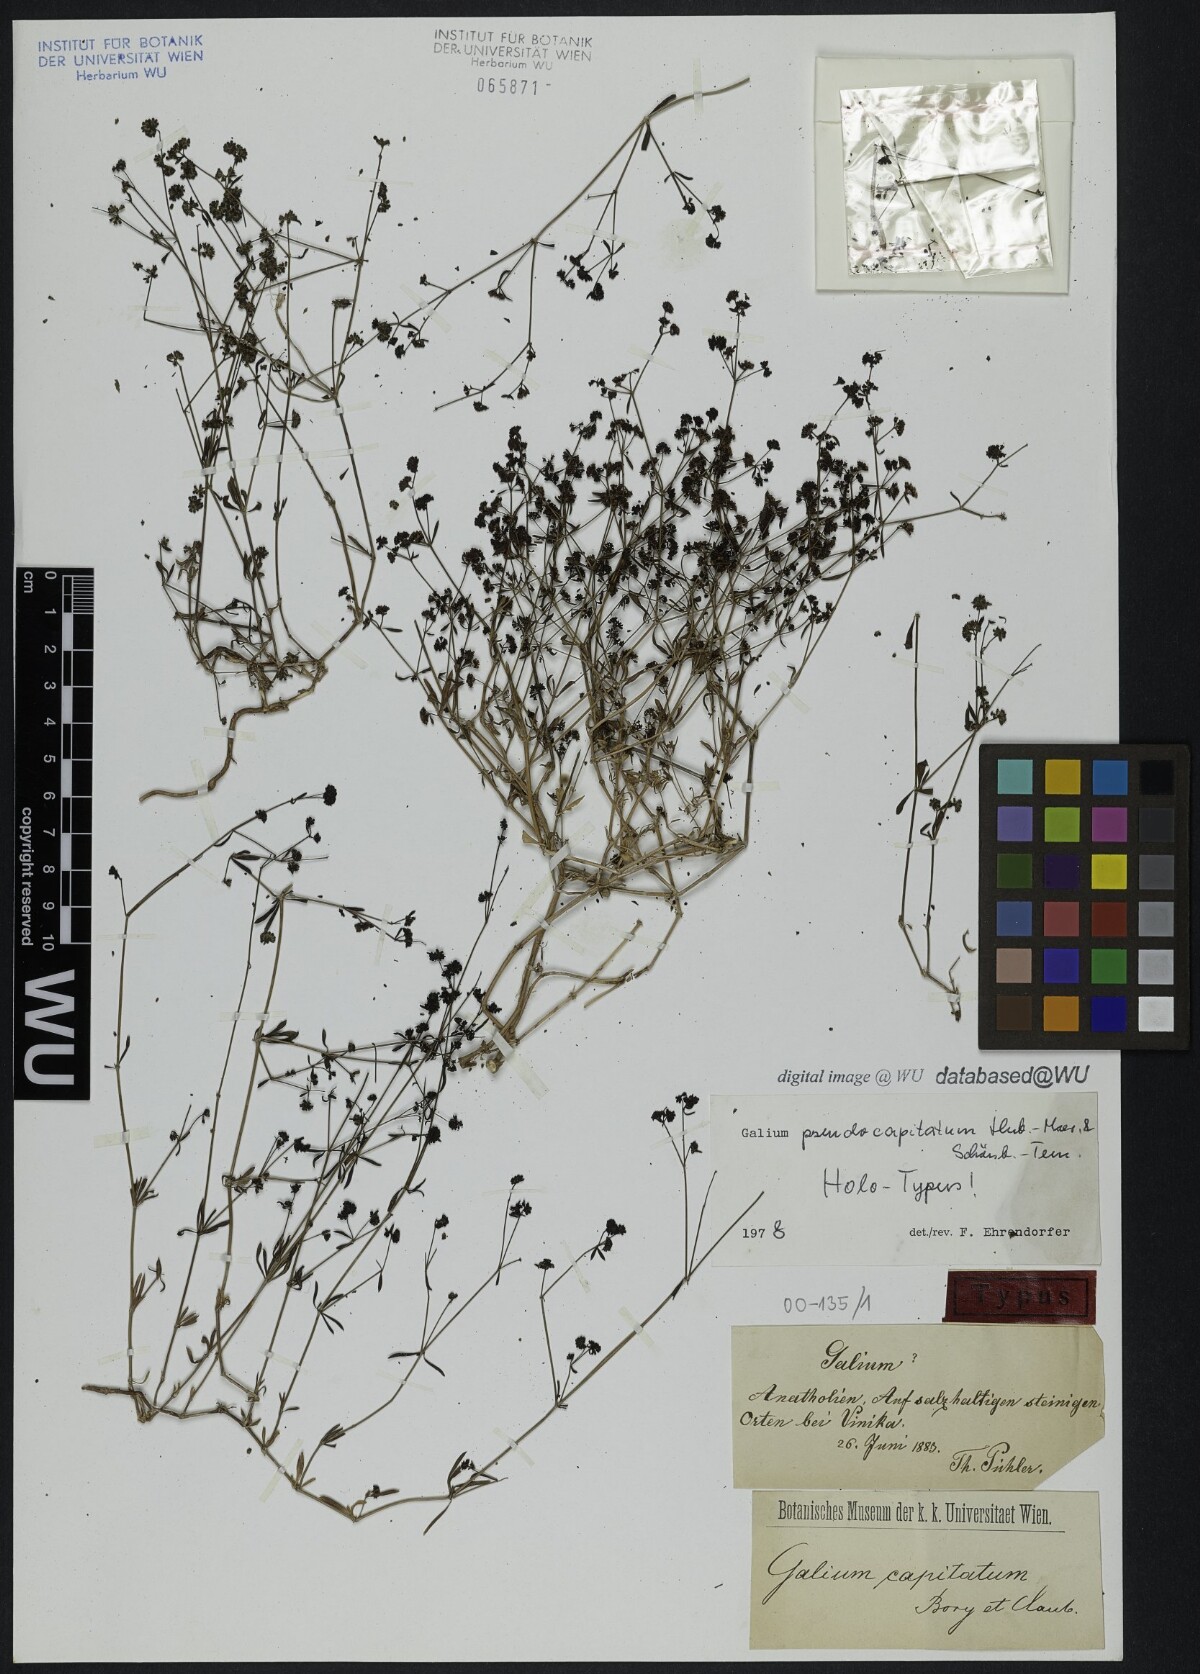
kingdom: Plantae
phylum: Tracheophyta
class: Magnoliopsida
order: Gentianales
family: Rubiaceae
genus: Galium
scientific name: Galium pseudocapitatum
